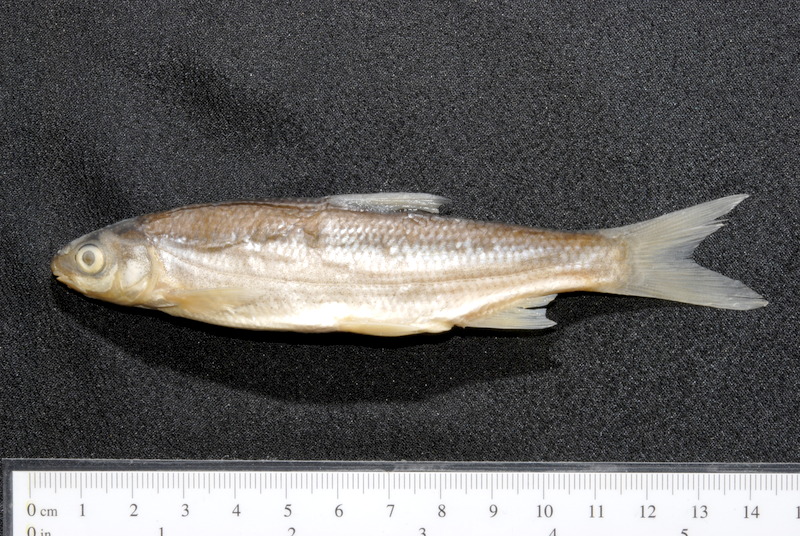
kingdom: Animalia
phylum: Chordata
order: Cypriniformes
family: Cyprinidae
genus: Chondrostoma
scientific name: Chondrostoma nasus
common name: Nase
